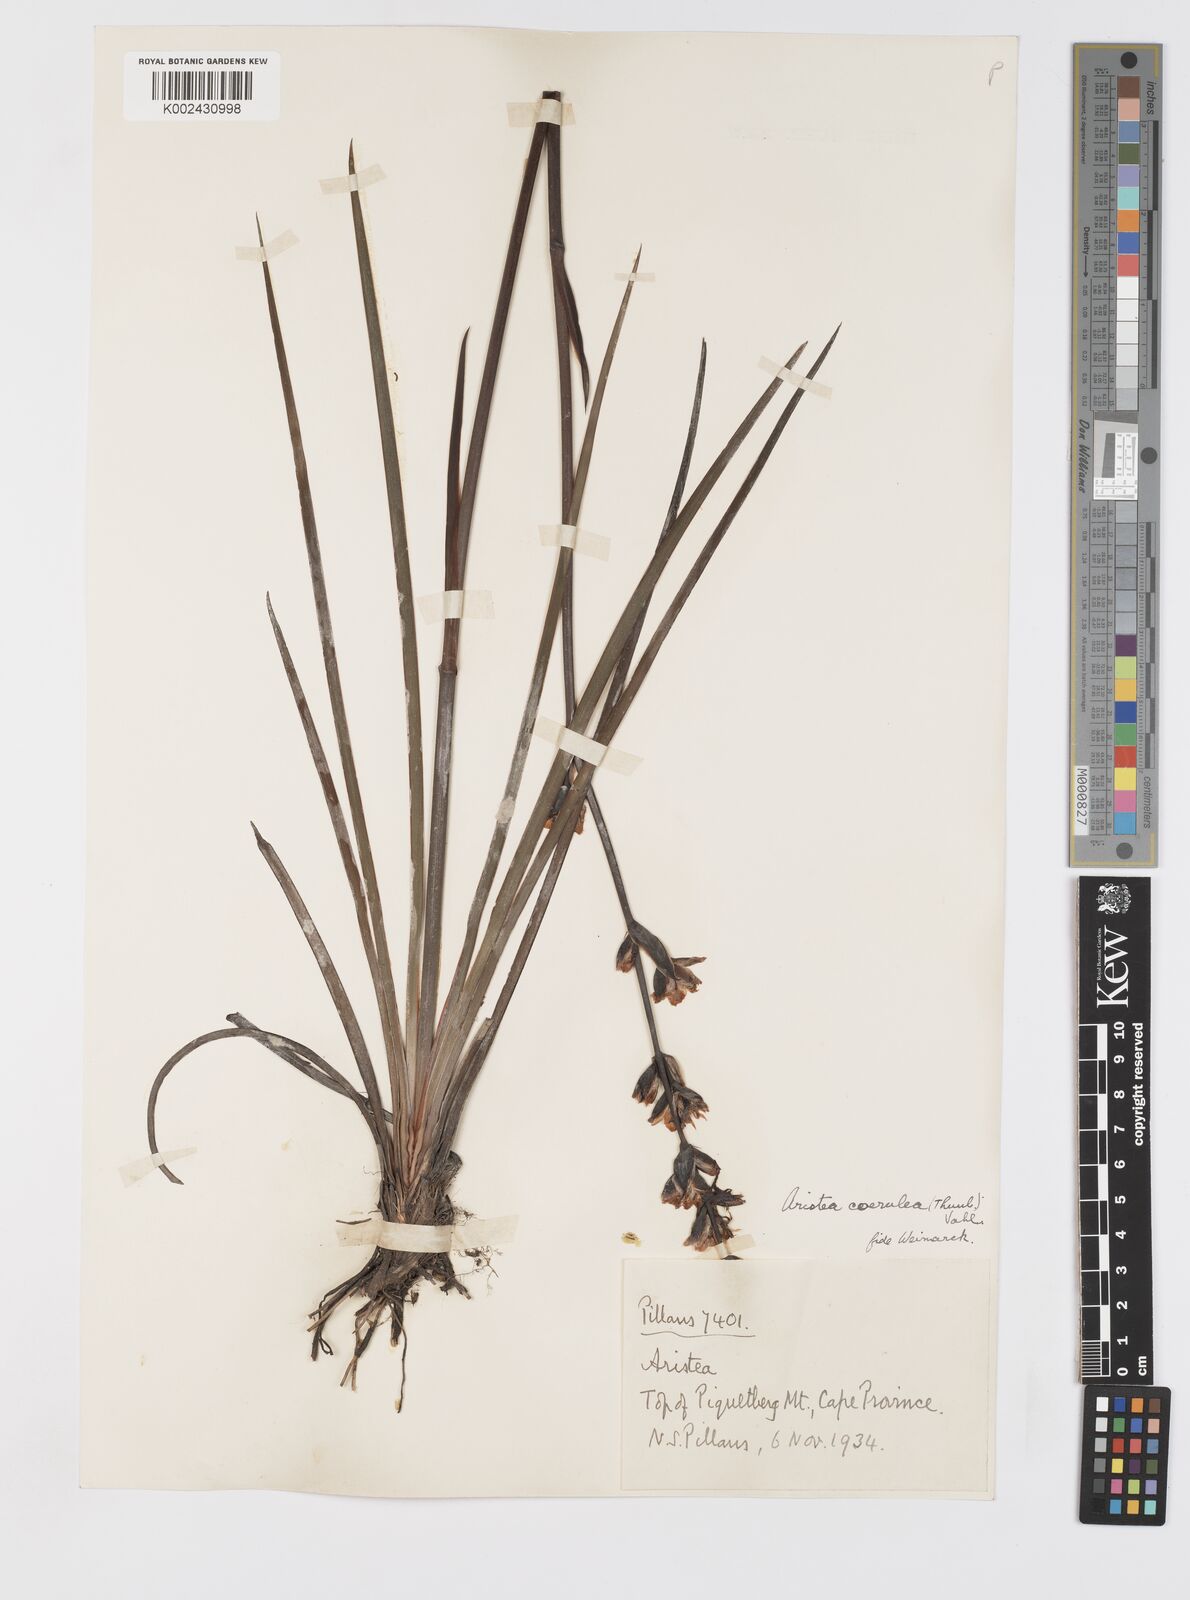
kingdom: Plantae
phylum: Tracheophyta
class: Liliopsida
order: Asparagales
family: Iridaceae
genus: Aristea
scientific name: Aristea monticola
